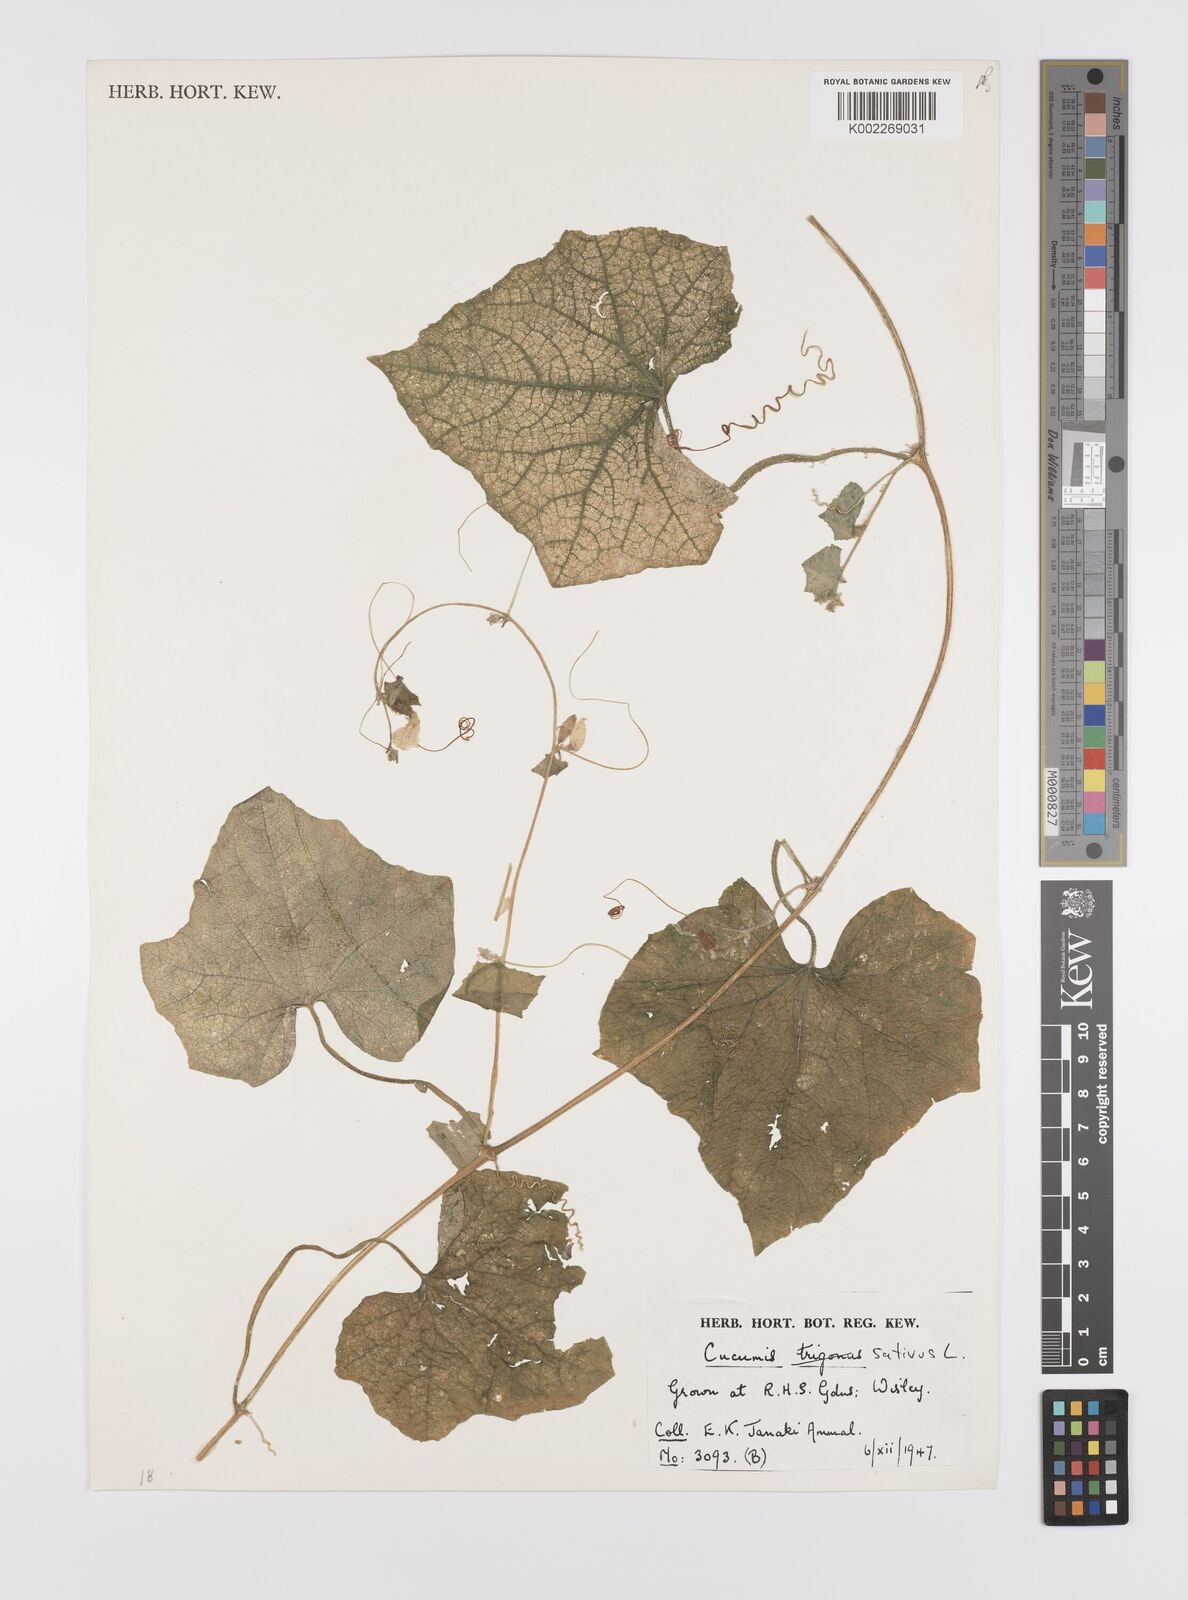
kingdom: Plantae
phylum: Tracheophyta
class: Magnoliopsida
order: Cucurbitales
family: Cucurbitaceae
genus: Cucumis
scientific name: Cucumis sativus
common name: Cucumber
